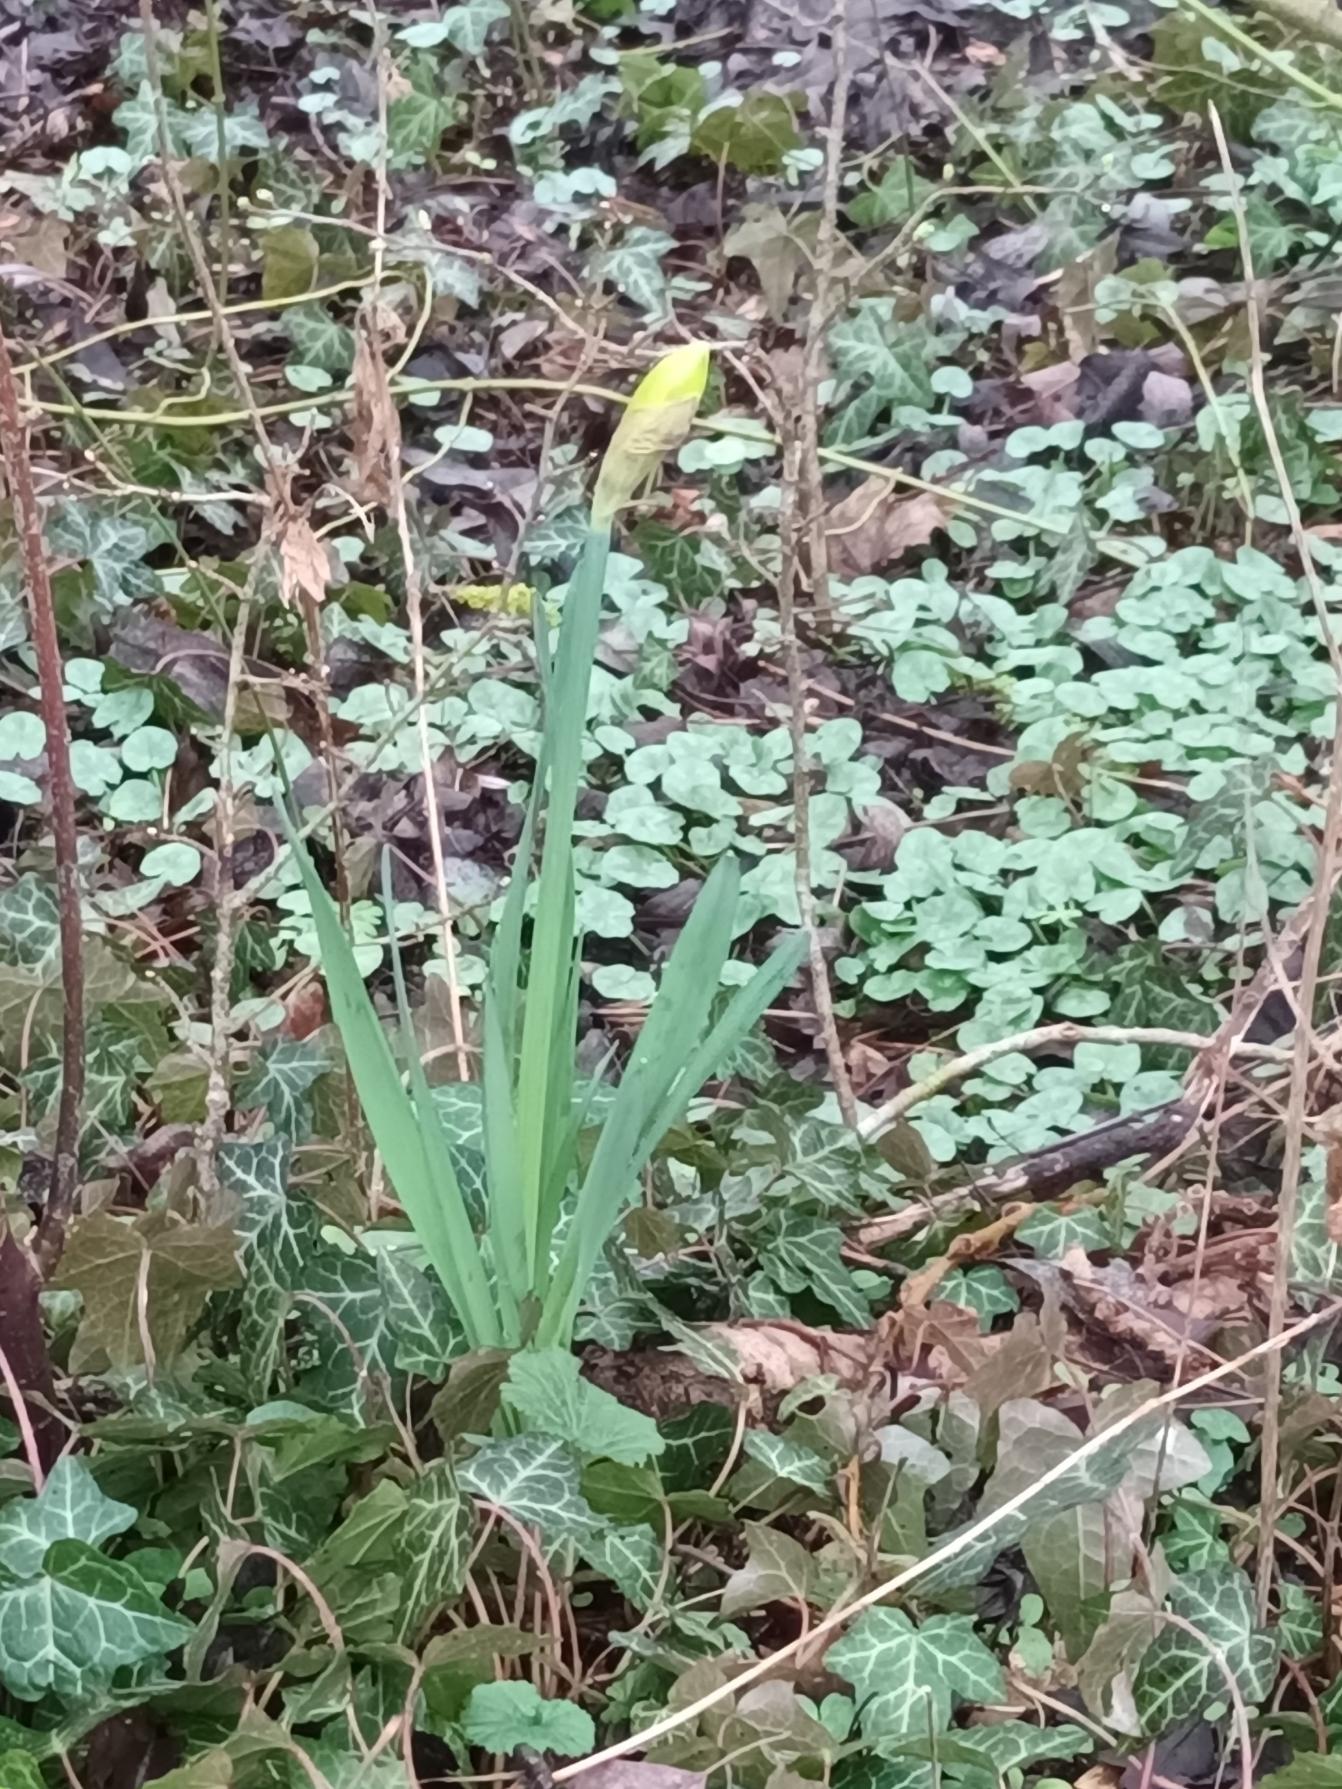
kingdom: Plantae
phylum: Tracheophyta
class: Liliopsida
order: Asparagales
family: Amaryllidaceae
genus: Narcissus
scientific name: Narcissus pseudonarcissus
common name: Påskelilje
